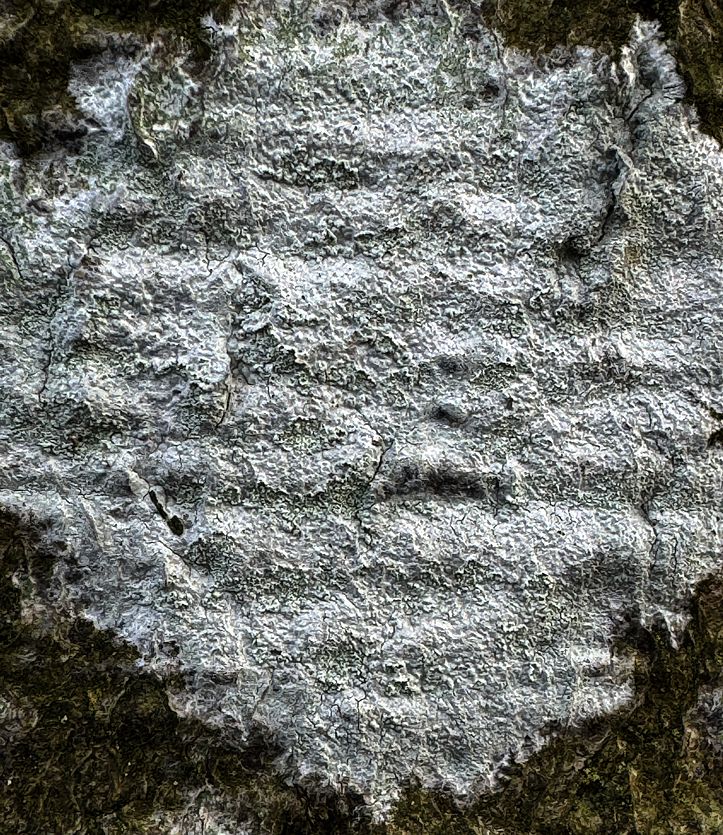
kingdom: Fungi
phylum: Ascomycota
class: Lecanoromycetes
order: Ostropales
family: Phlyctidaceae
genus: Phlyctis
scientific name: Phlyctis argena
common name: almindelig sølvlav
